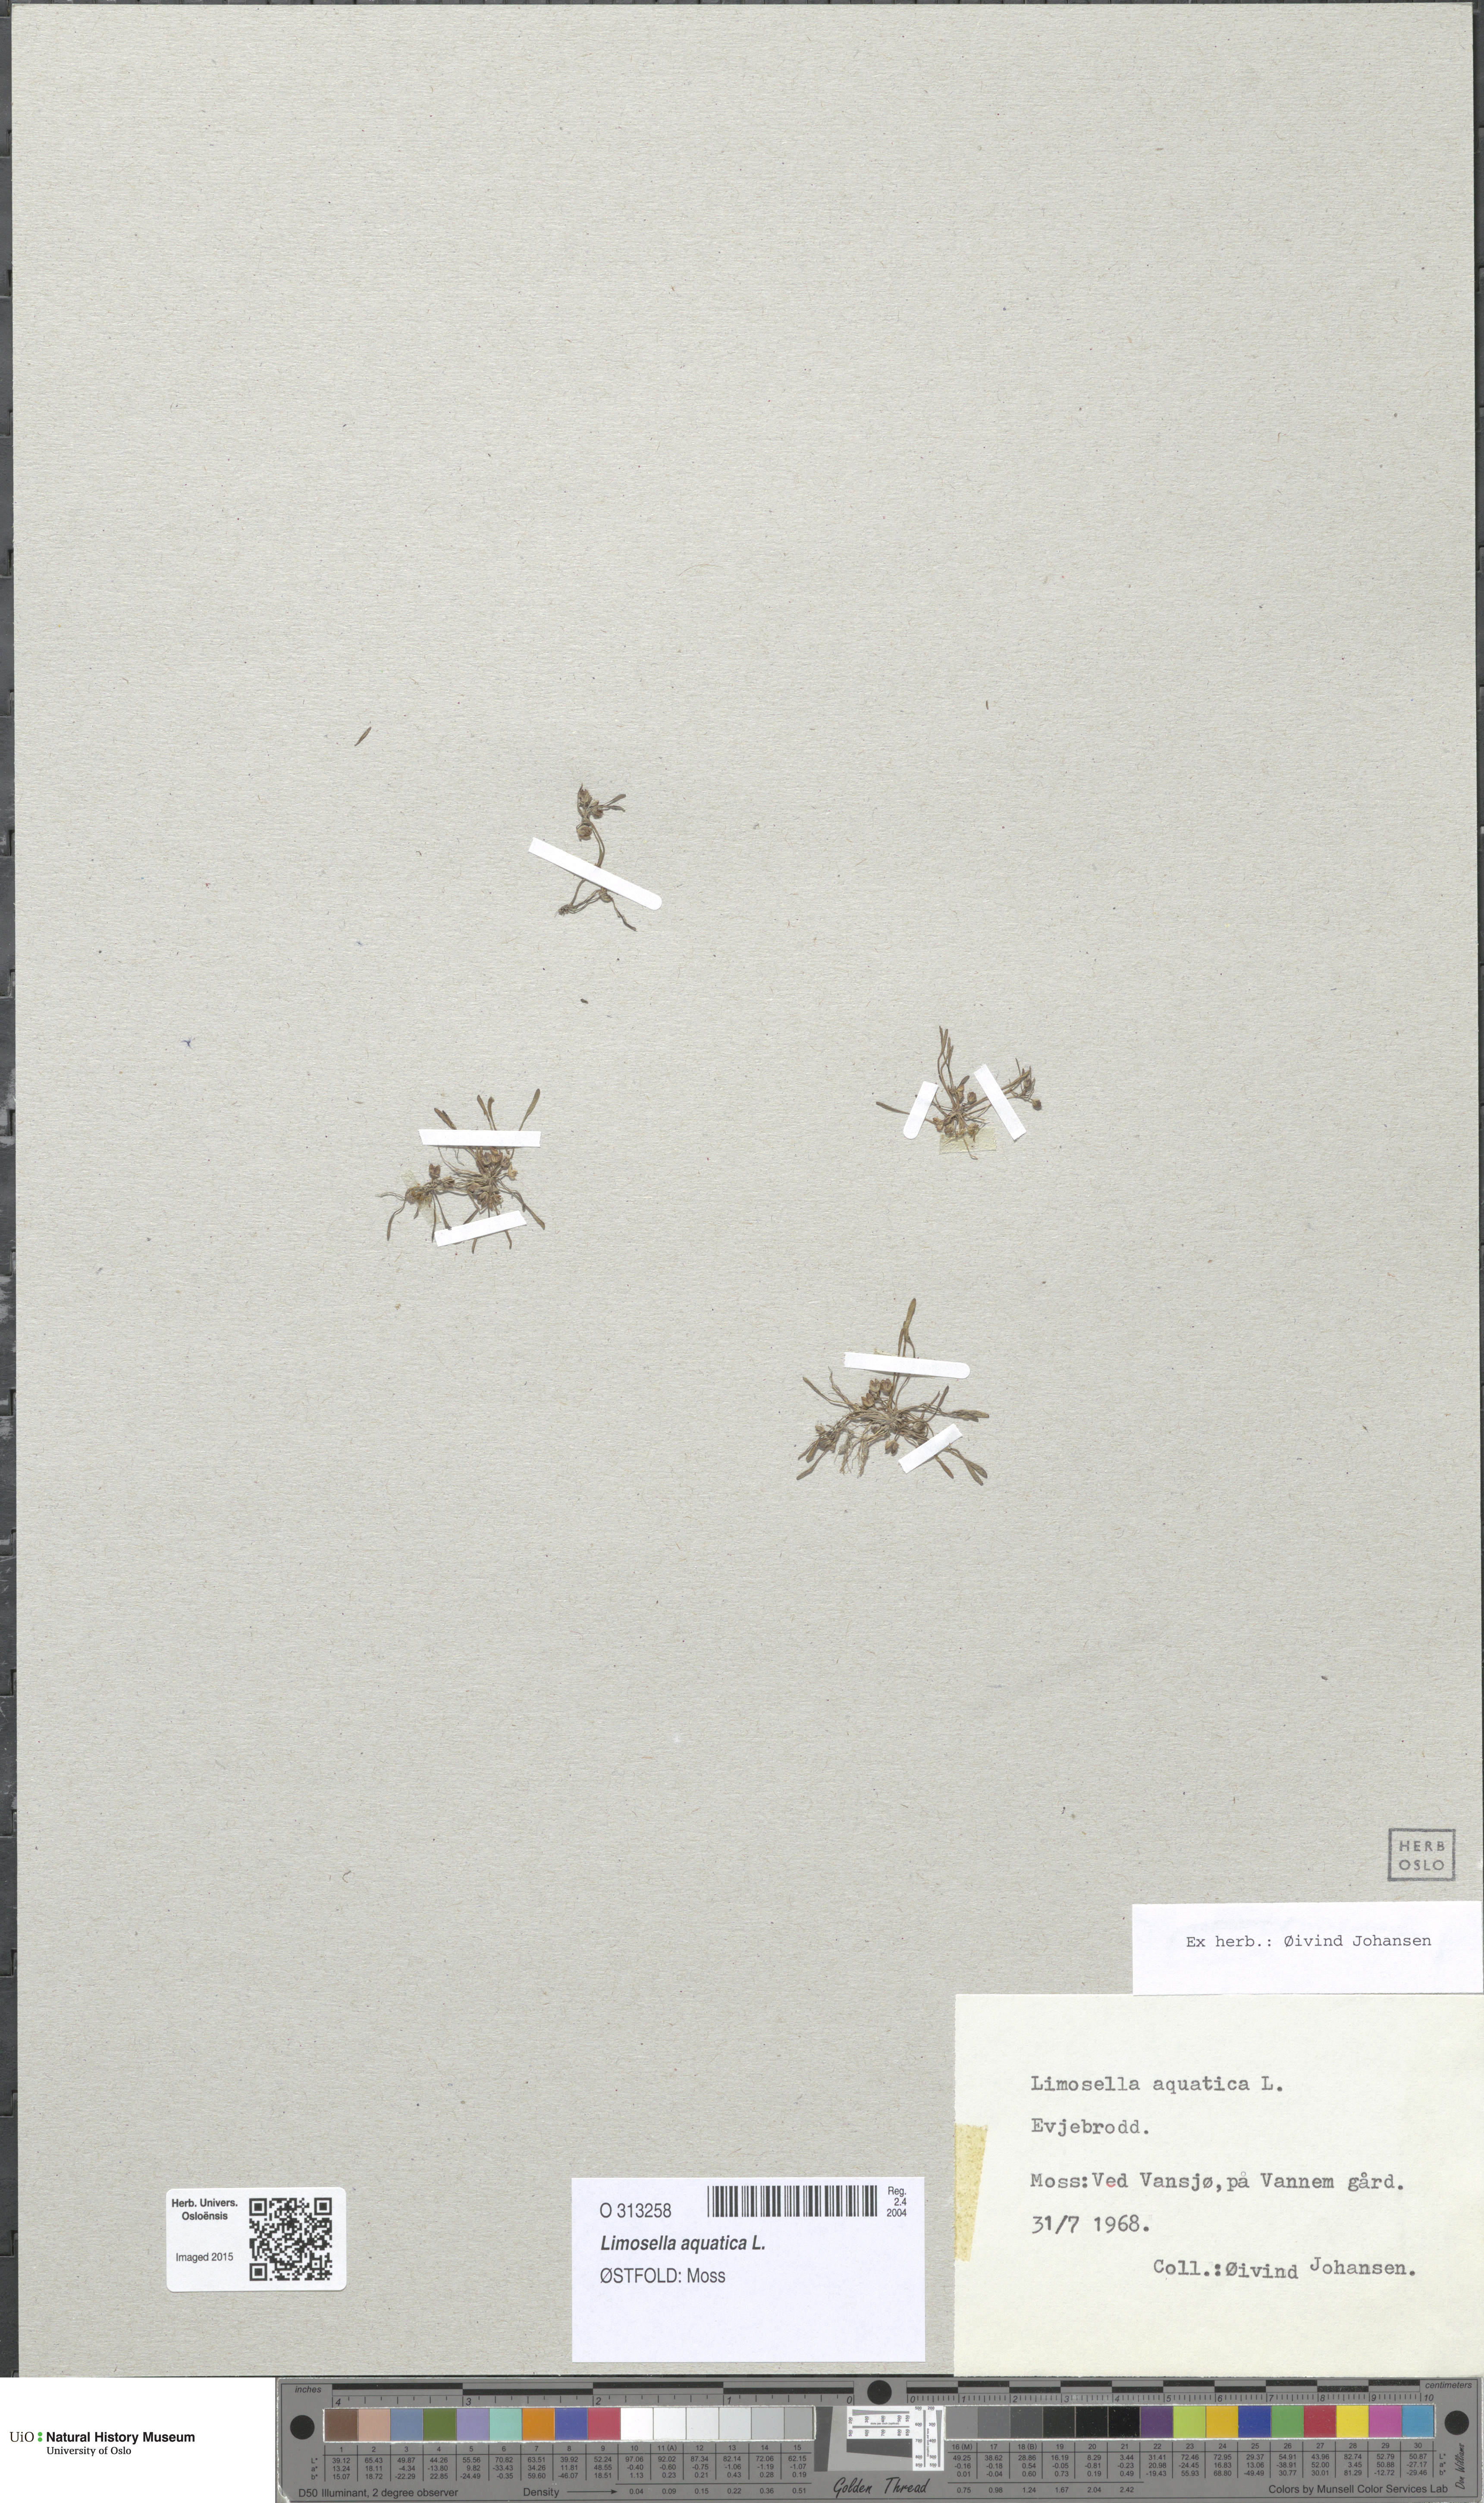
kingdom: Plantae
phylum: Tracheophyta
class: Magnoliopsida
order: Lamiales
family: Scrophulariaceae
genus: Limosella
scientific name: Limosella aquatica
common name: Mudwort
